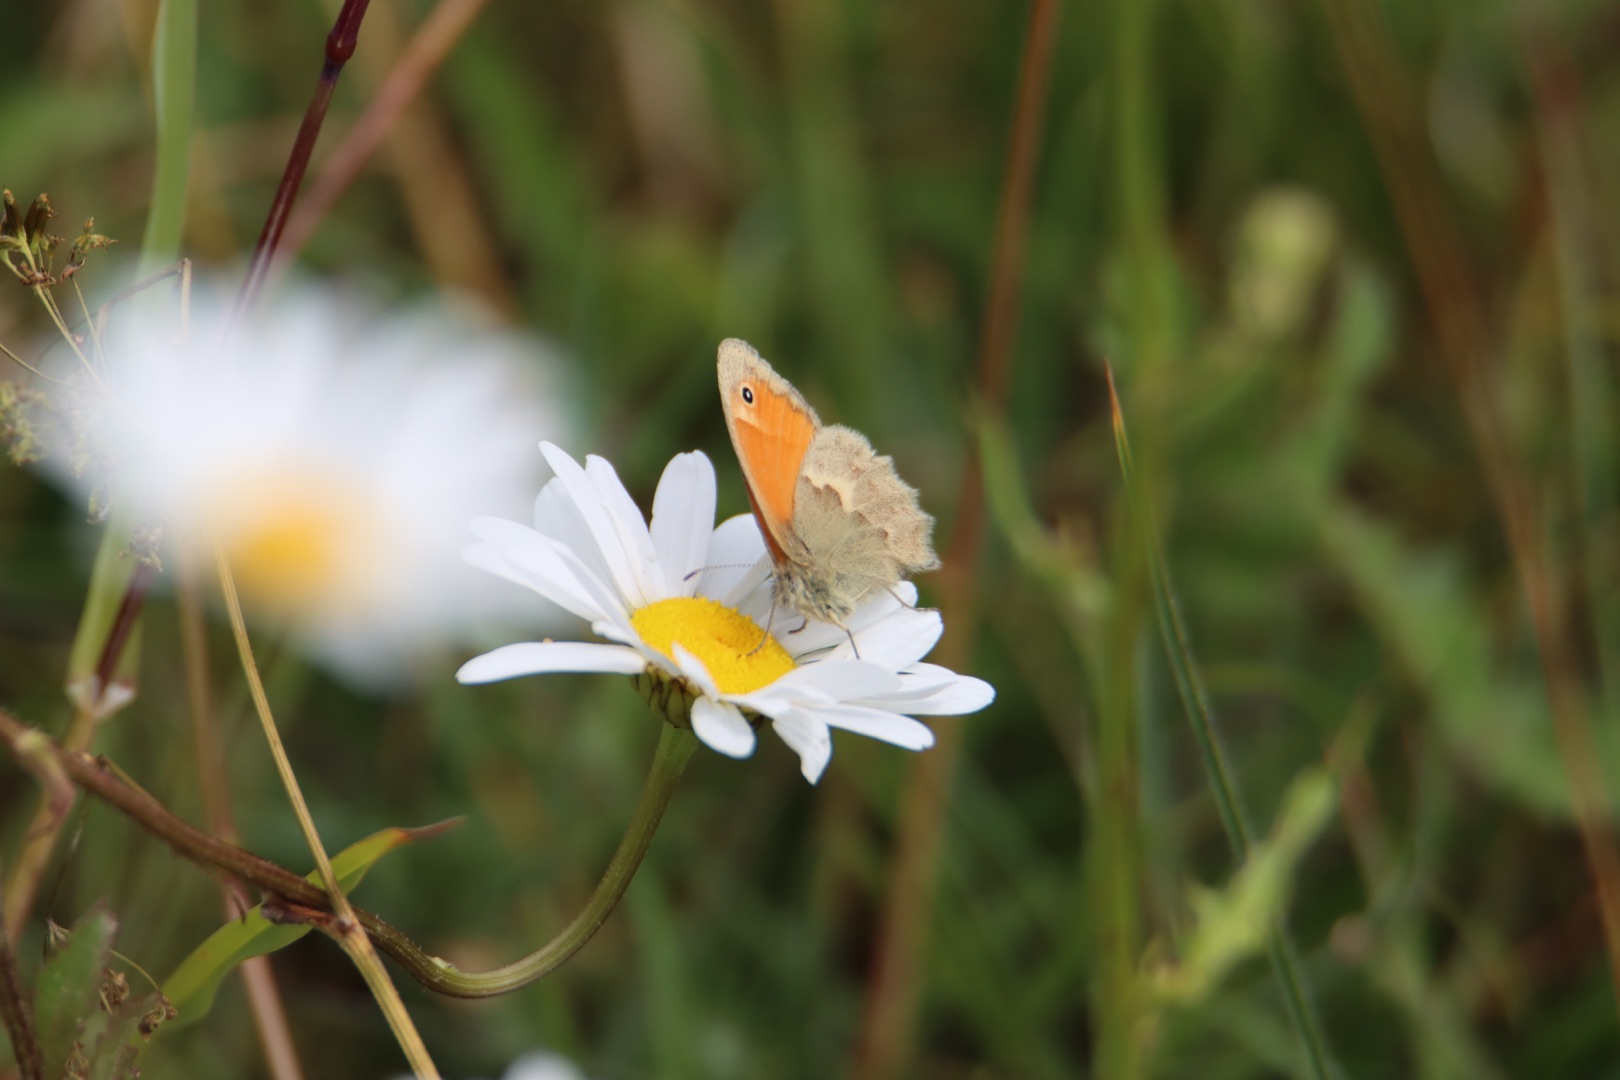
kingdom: Animalia
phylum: Arthropoda
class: Insecta
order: Lepidoptera
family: Nymphalidae
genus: Coenonympha
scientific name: Coenonympha pamphilus
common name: Okkergul randøje
